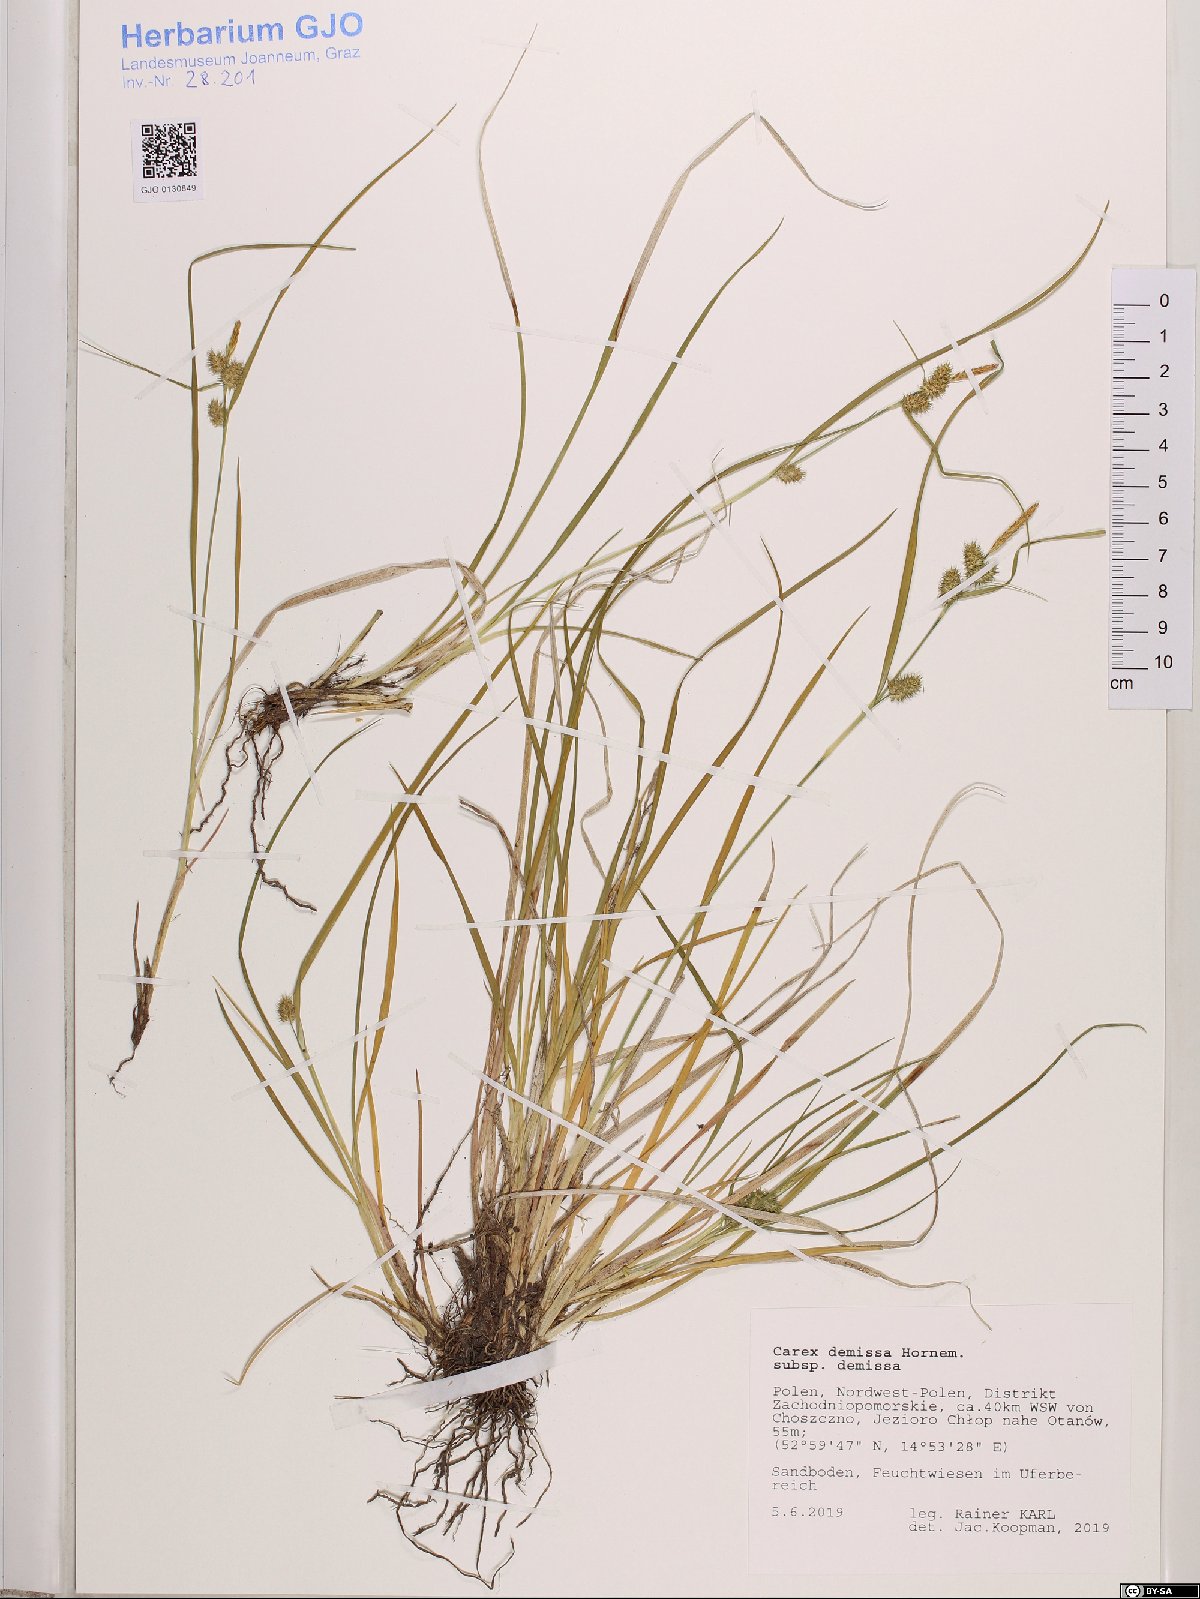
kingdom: Plantae
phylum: Tracheophyta
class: Liliopsida
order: Poales
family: Cyperaceae
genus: Carex
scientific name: Carex demissa
